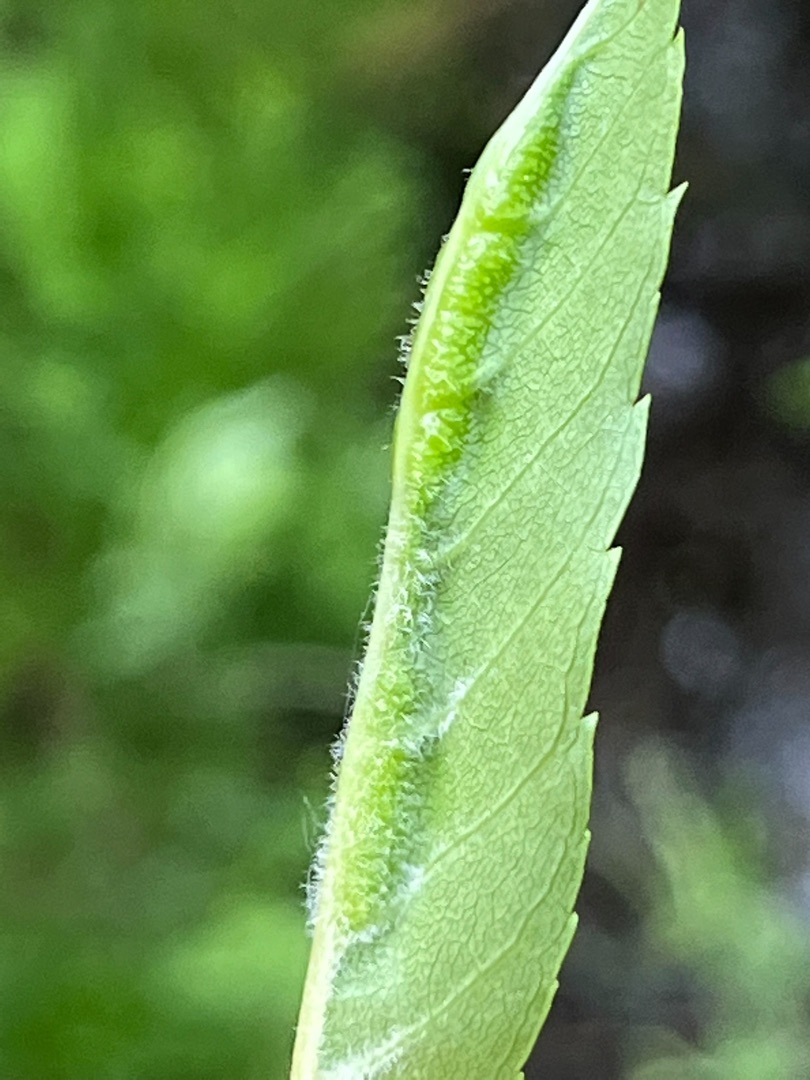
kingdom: Animalia
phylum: Arthropoda
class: Insecta
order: Diptera
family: Cecidomyiidae
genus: Dasineura
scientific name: Dasineura fraxini
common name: Orange askebladgalmyg
